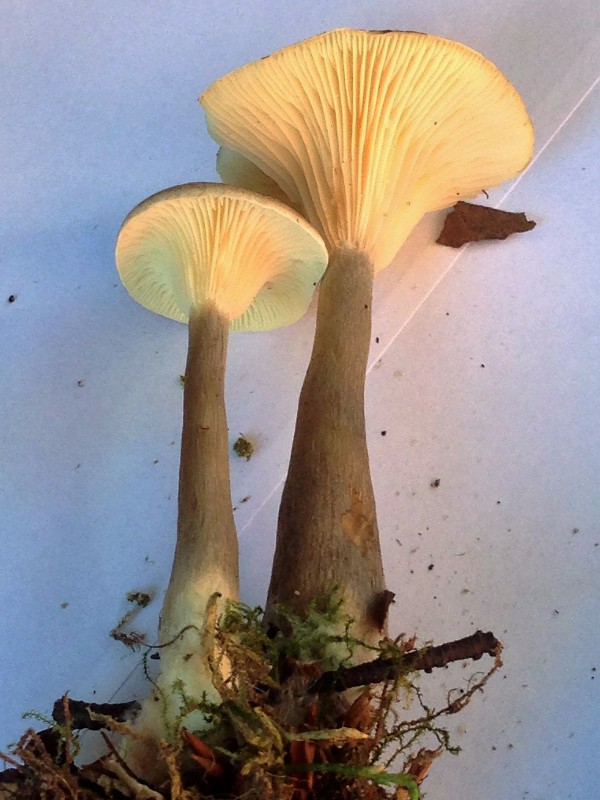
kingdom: Fungi
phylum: Basidiomycota
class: Agaricomycetes
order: Agaricales
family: Hygrophoraceae
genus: Ampulloclitocybe
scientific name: Ampulloclitocybe clavipes
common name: køllefod
